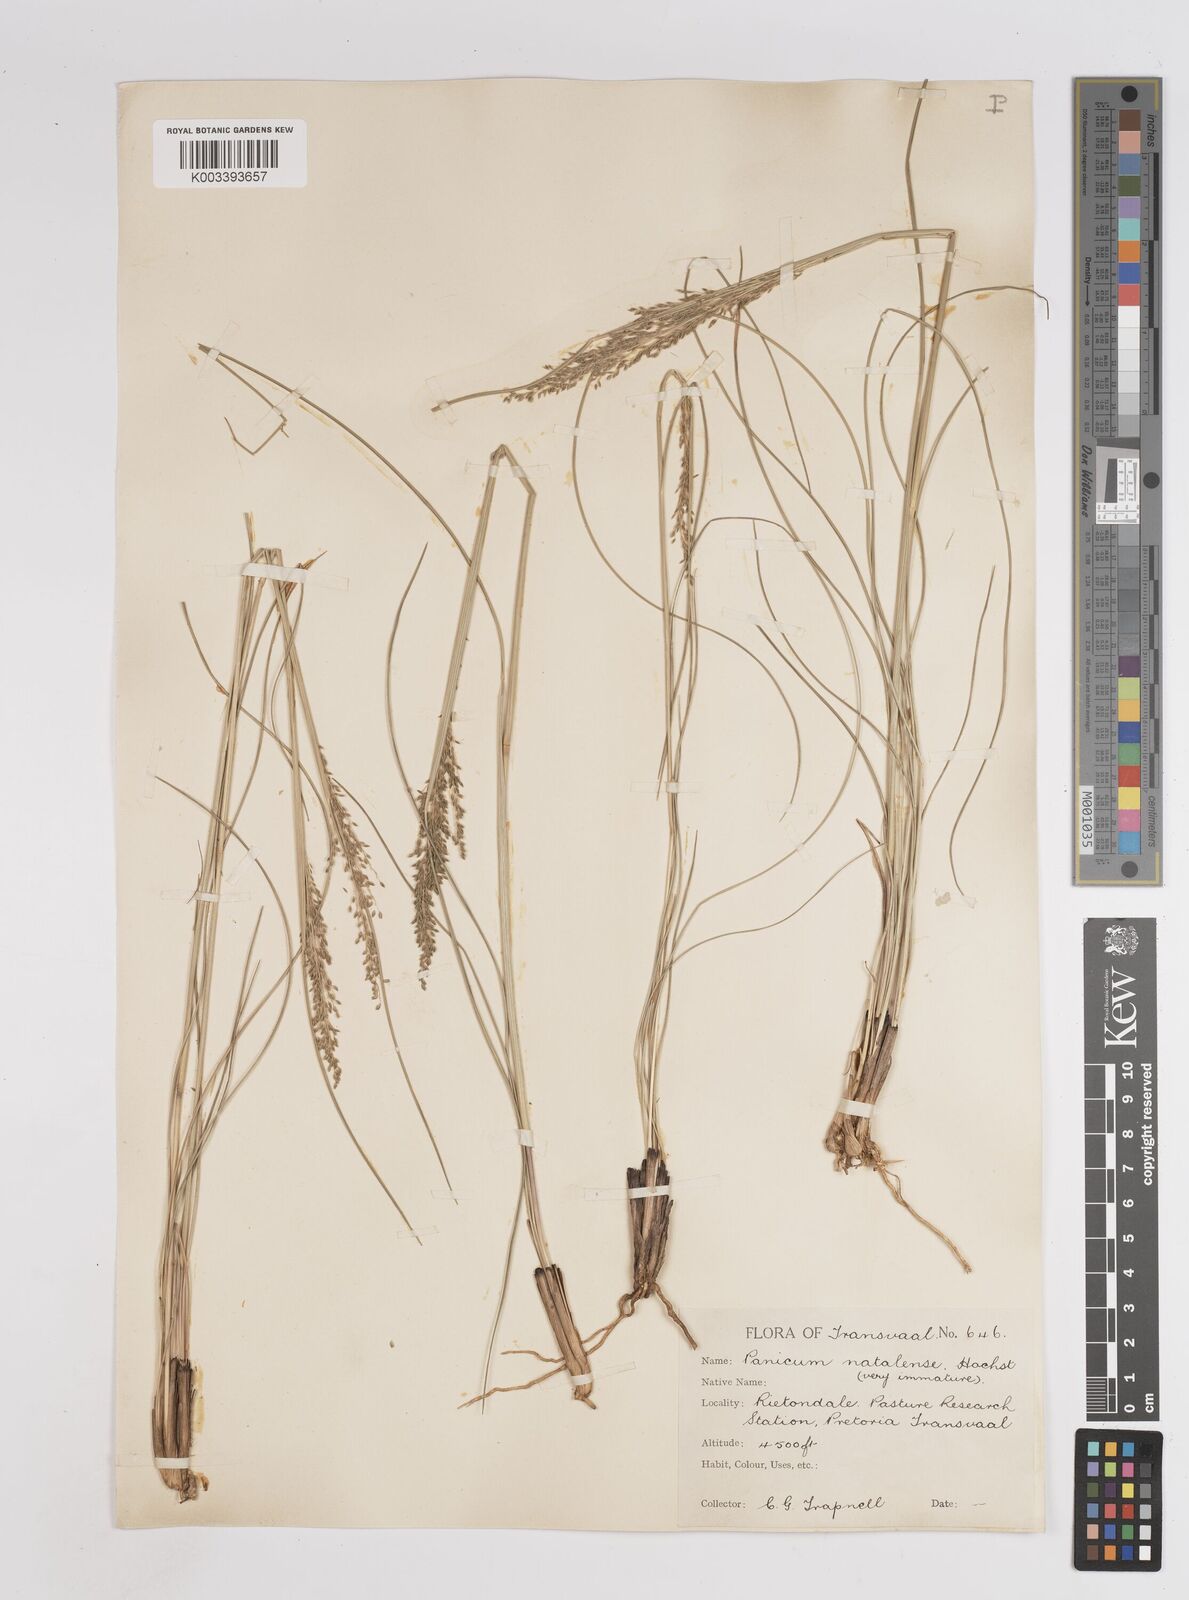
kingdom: Plantae
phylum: Tracheophyta
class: Liliopsida
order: Poales
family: Poaceae
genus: Trichanthecium
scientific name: Trichanthecium natalense
